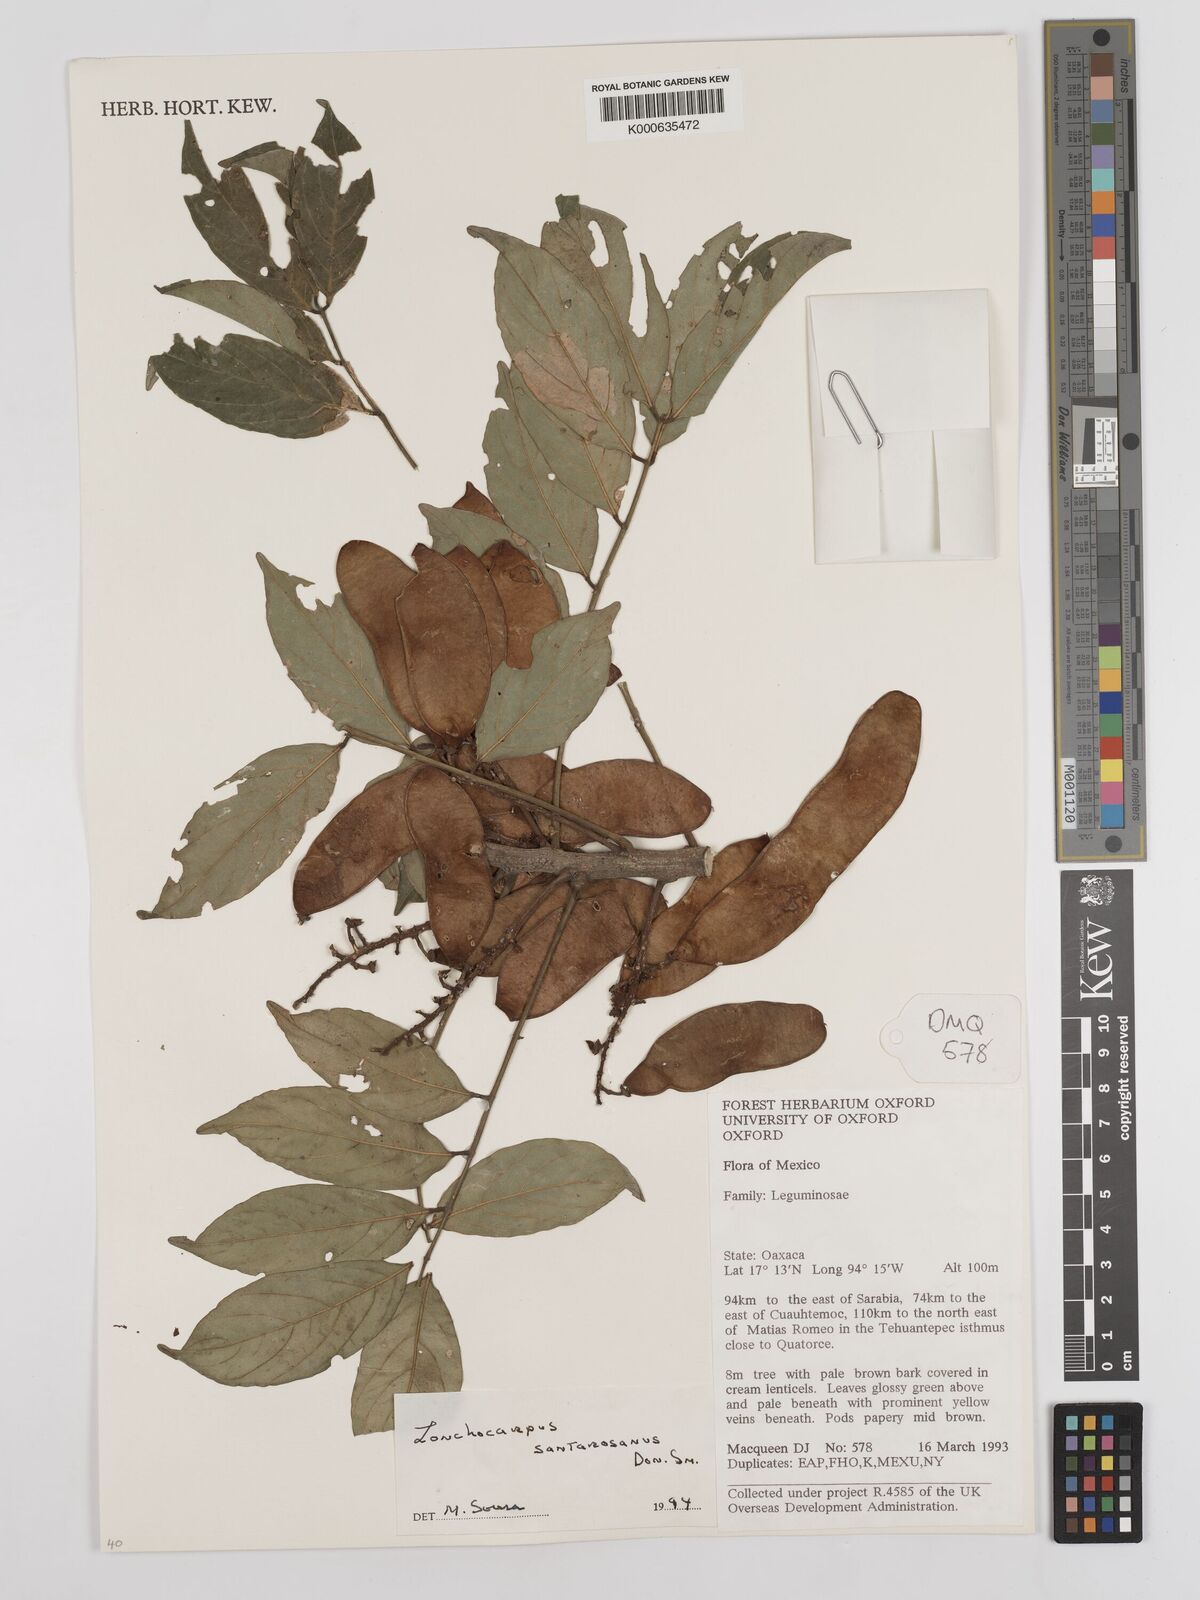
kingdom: Plantae
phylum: Tracheophyta
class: Magnoliopsida
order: Fabales
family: Fabaceae
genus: Lonchocarpus
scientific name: Lonchocarpus santarosanus
